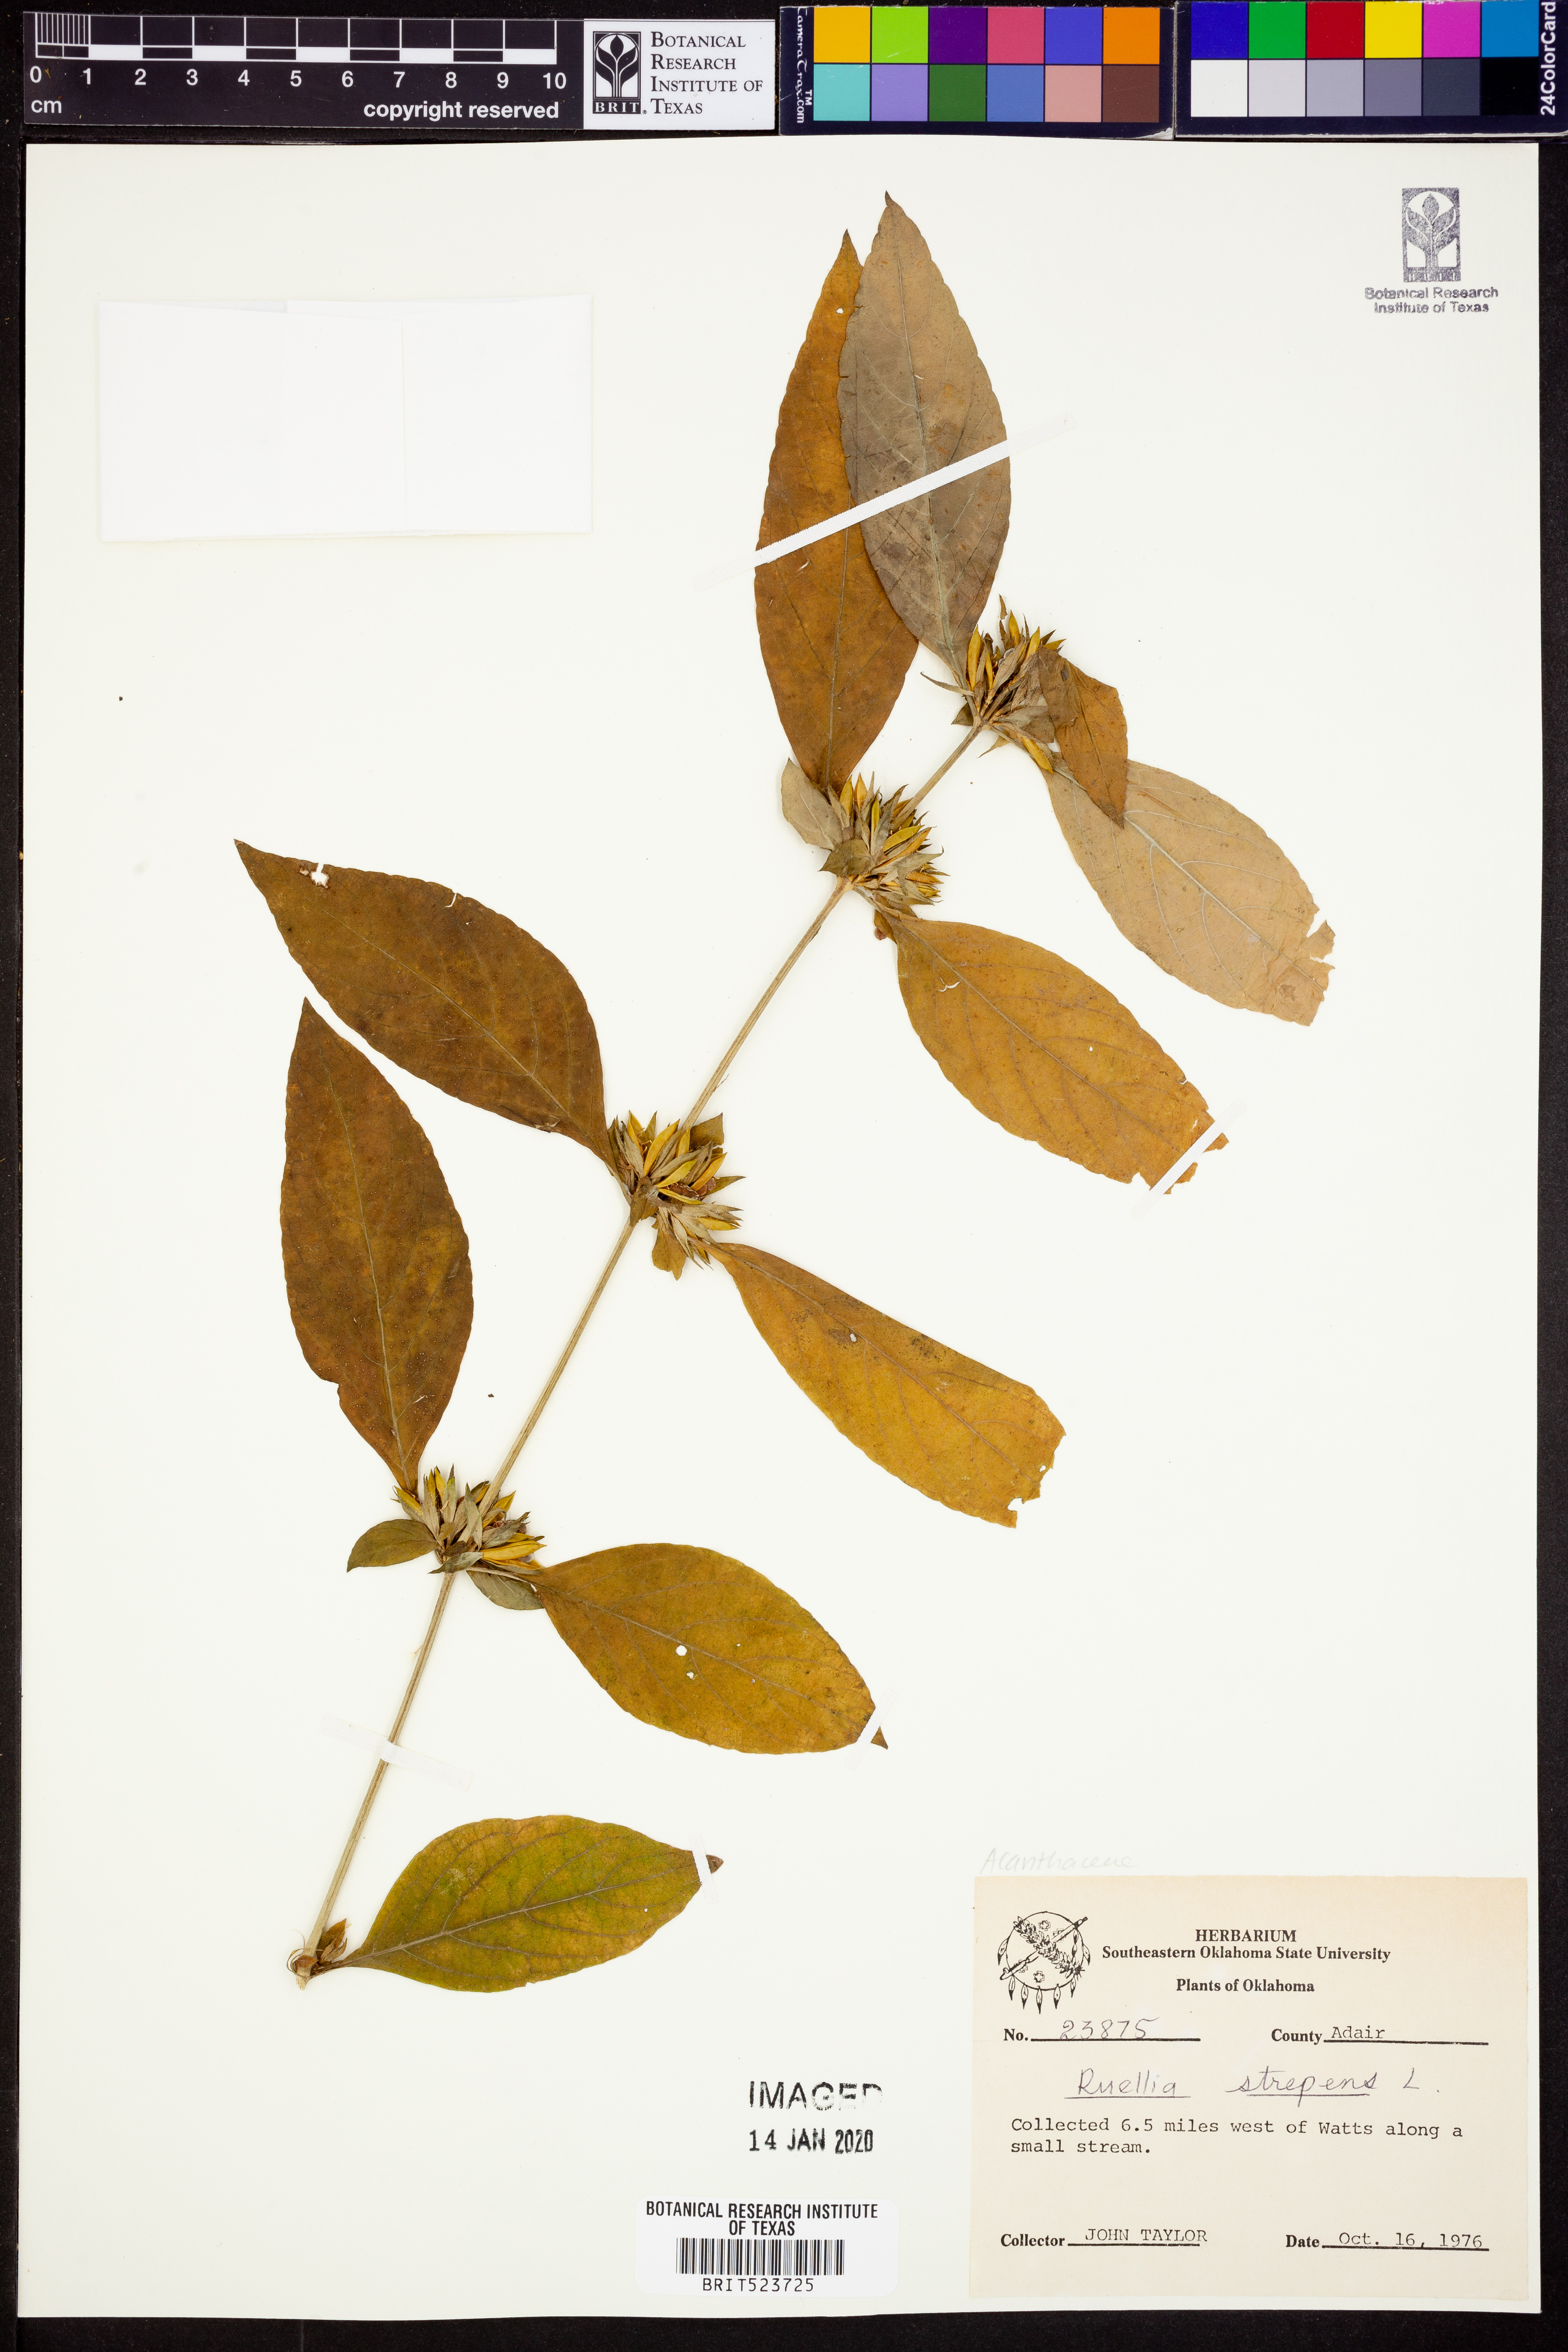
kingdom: Plantae
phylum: Tracheophyta
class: Magnoliopsida
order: Lamiales
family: Acanthaceae
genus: Ruellia
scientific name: Ruellia strepens
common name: Limestone wild petunia
